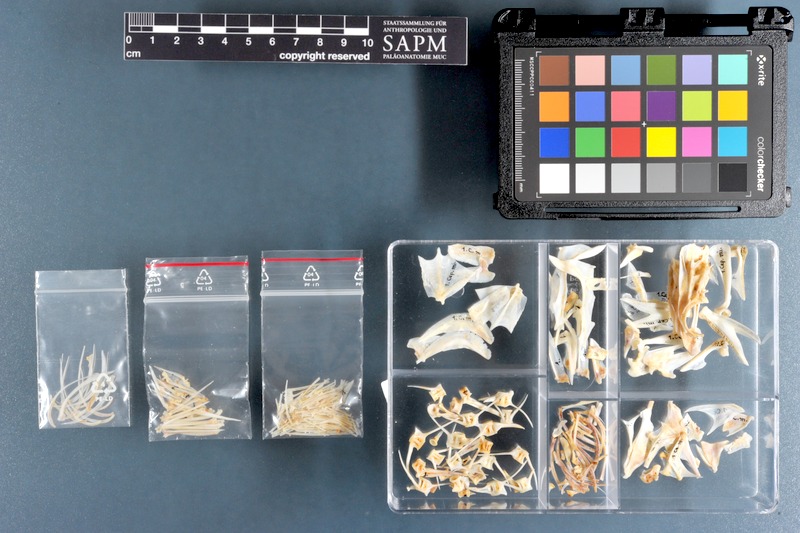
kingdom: Animalia
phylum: Chordata
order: Perciformes
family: Serranidae
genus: Cephalopholis
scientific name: Cephalopholis miniata
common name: Coral hind
